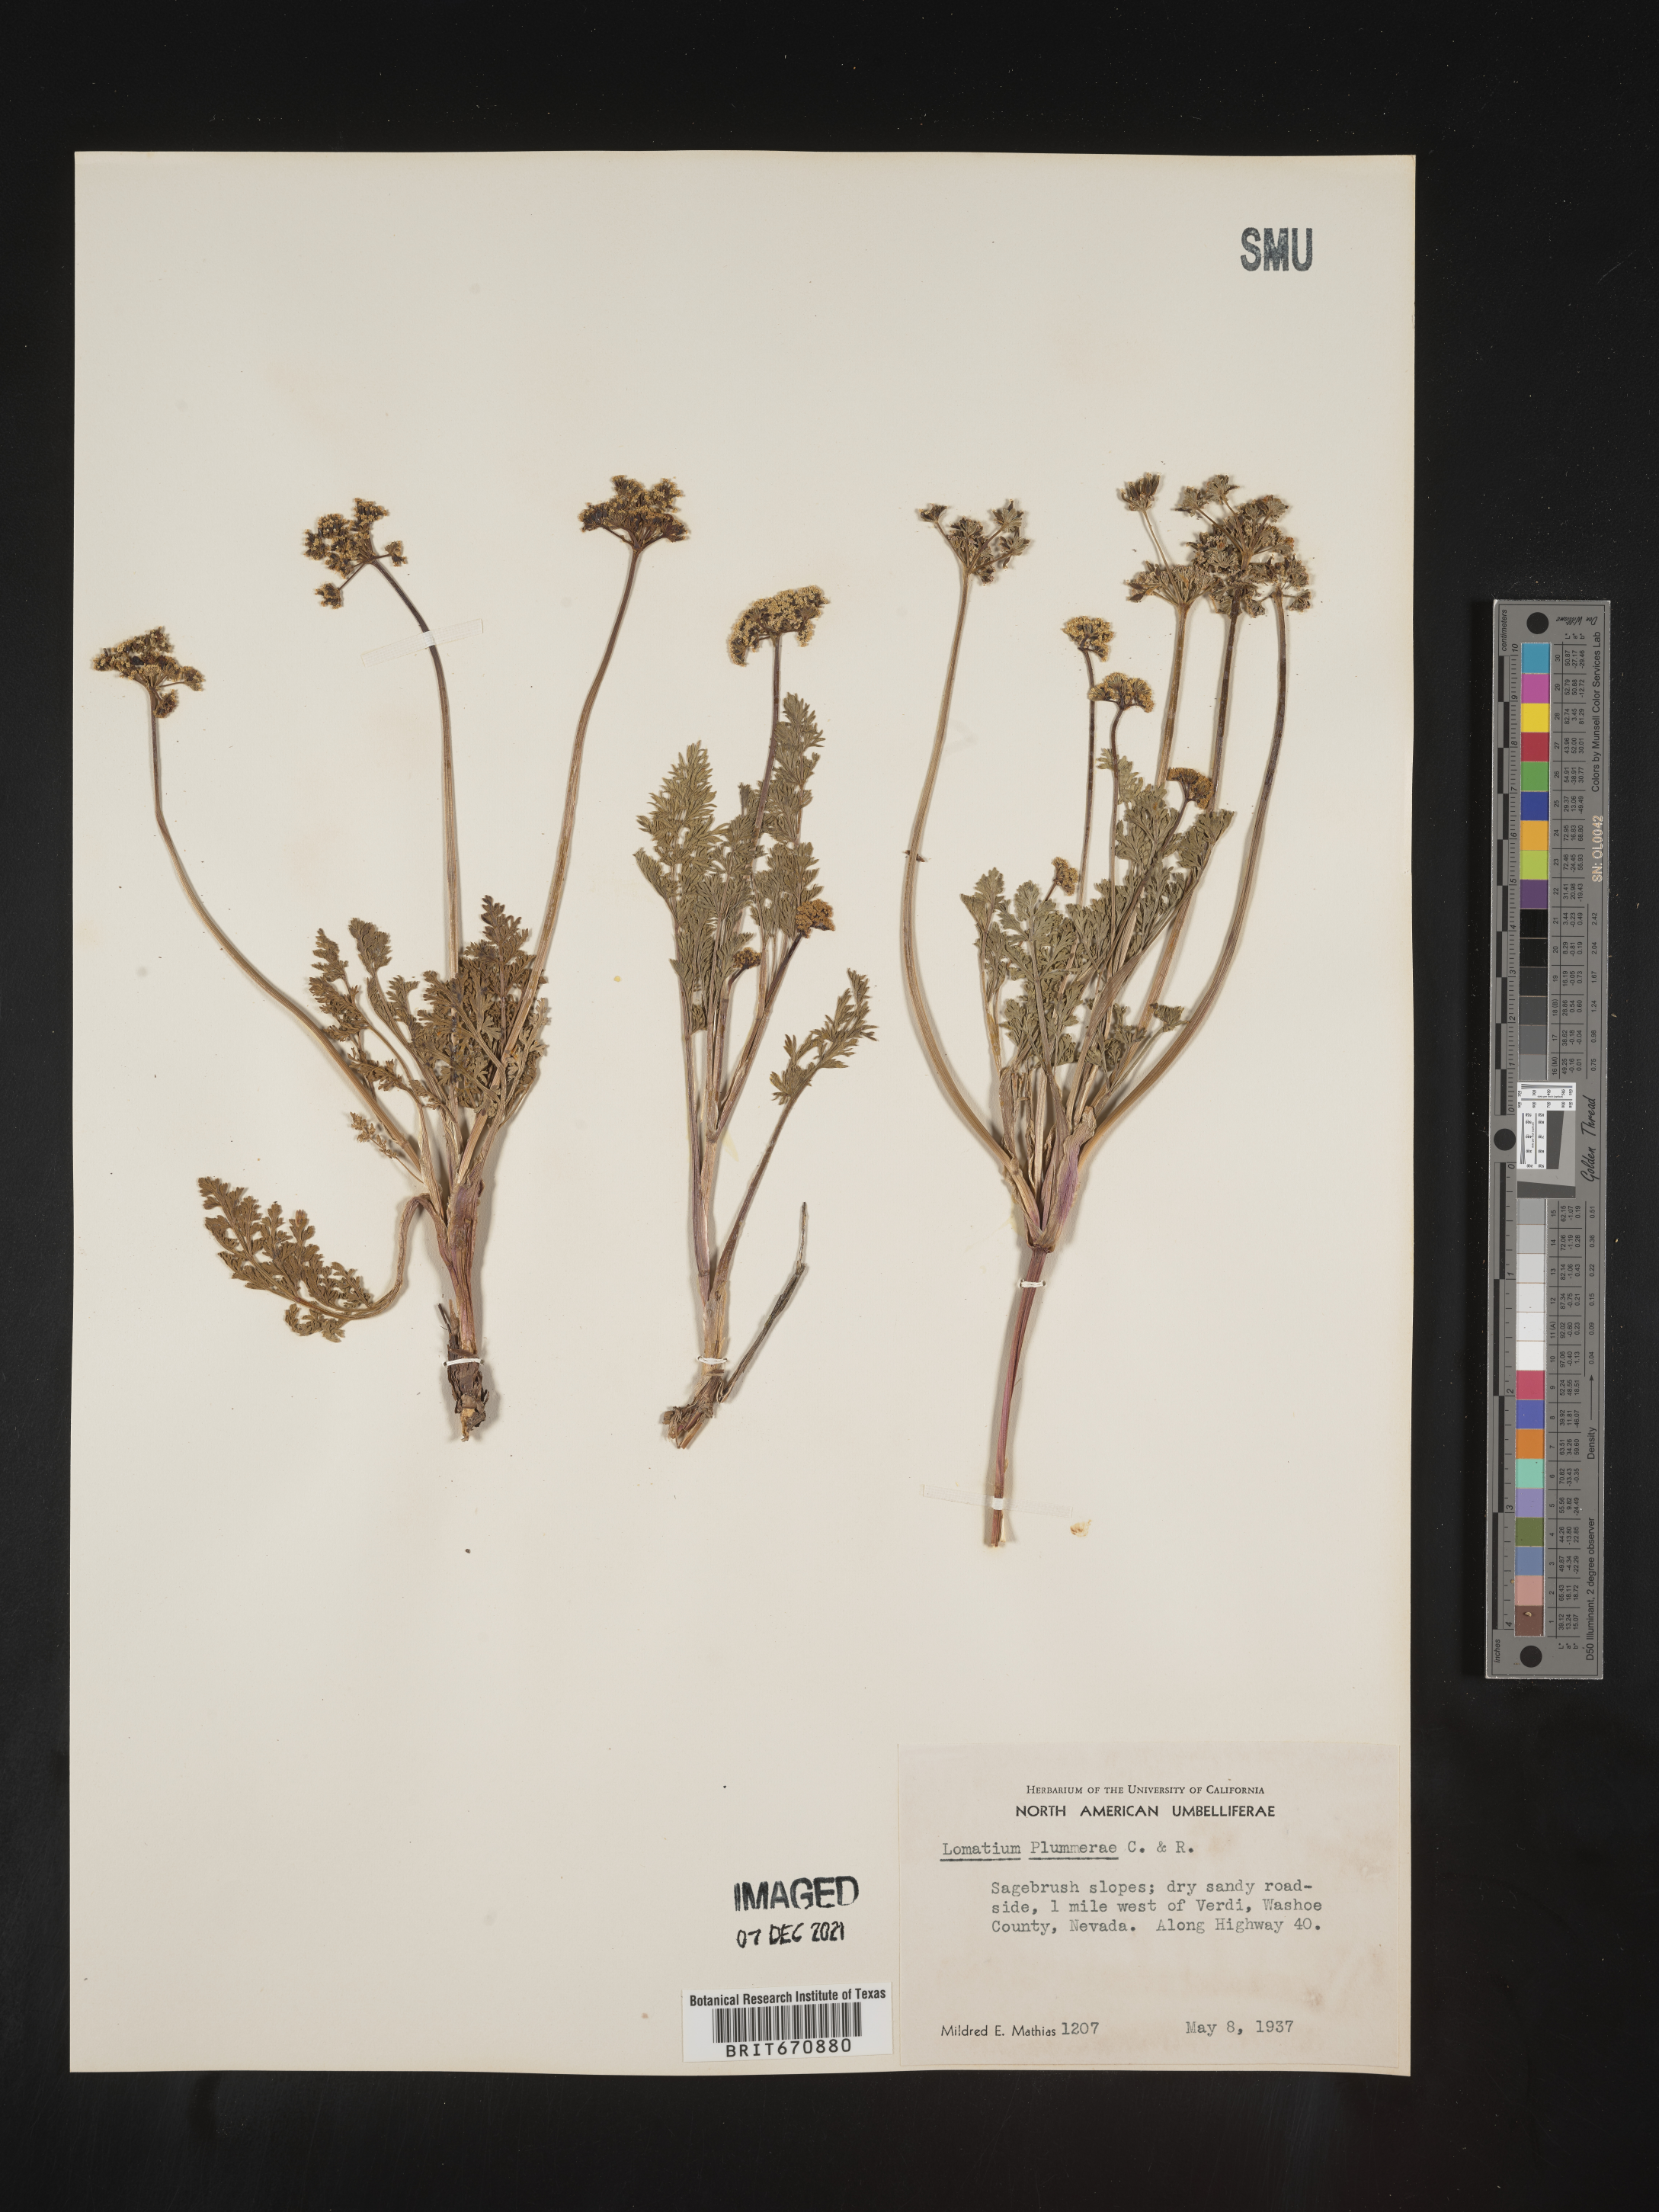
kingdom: Plantae
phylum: Tracheophyta
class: Magnoliopsida
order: Apiales
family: Apiaceae
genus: Lomatium
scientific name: Lomatium
